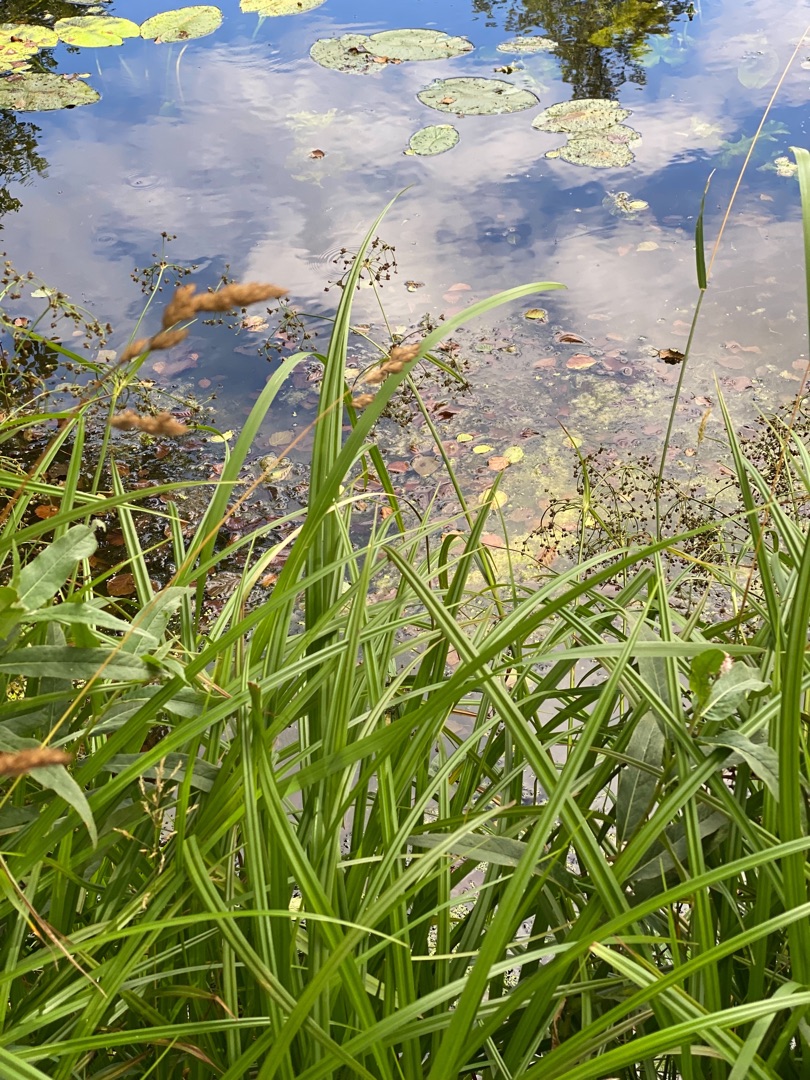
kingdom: Plantae
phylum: Tracheophyta
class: Liliopsida
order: Poales
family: Cyperaceae
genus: Scirpus
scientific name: Scirpus sylvaticus
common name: Skov-kogleaks
